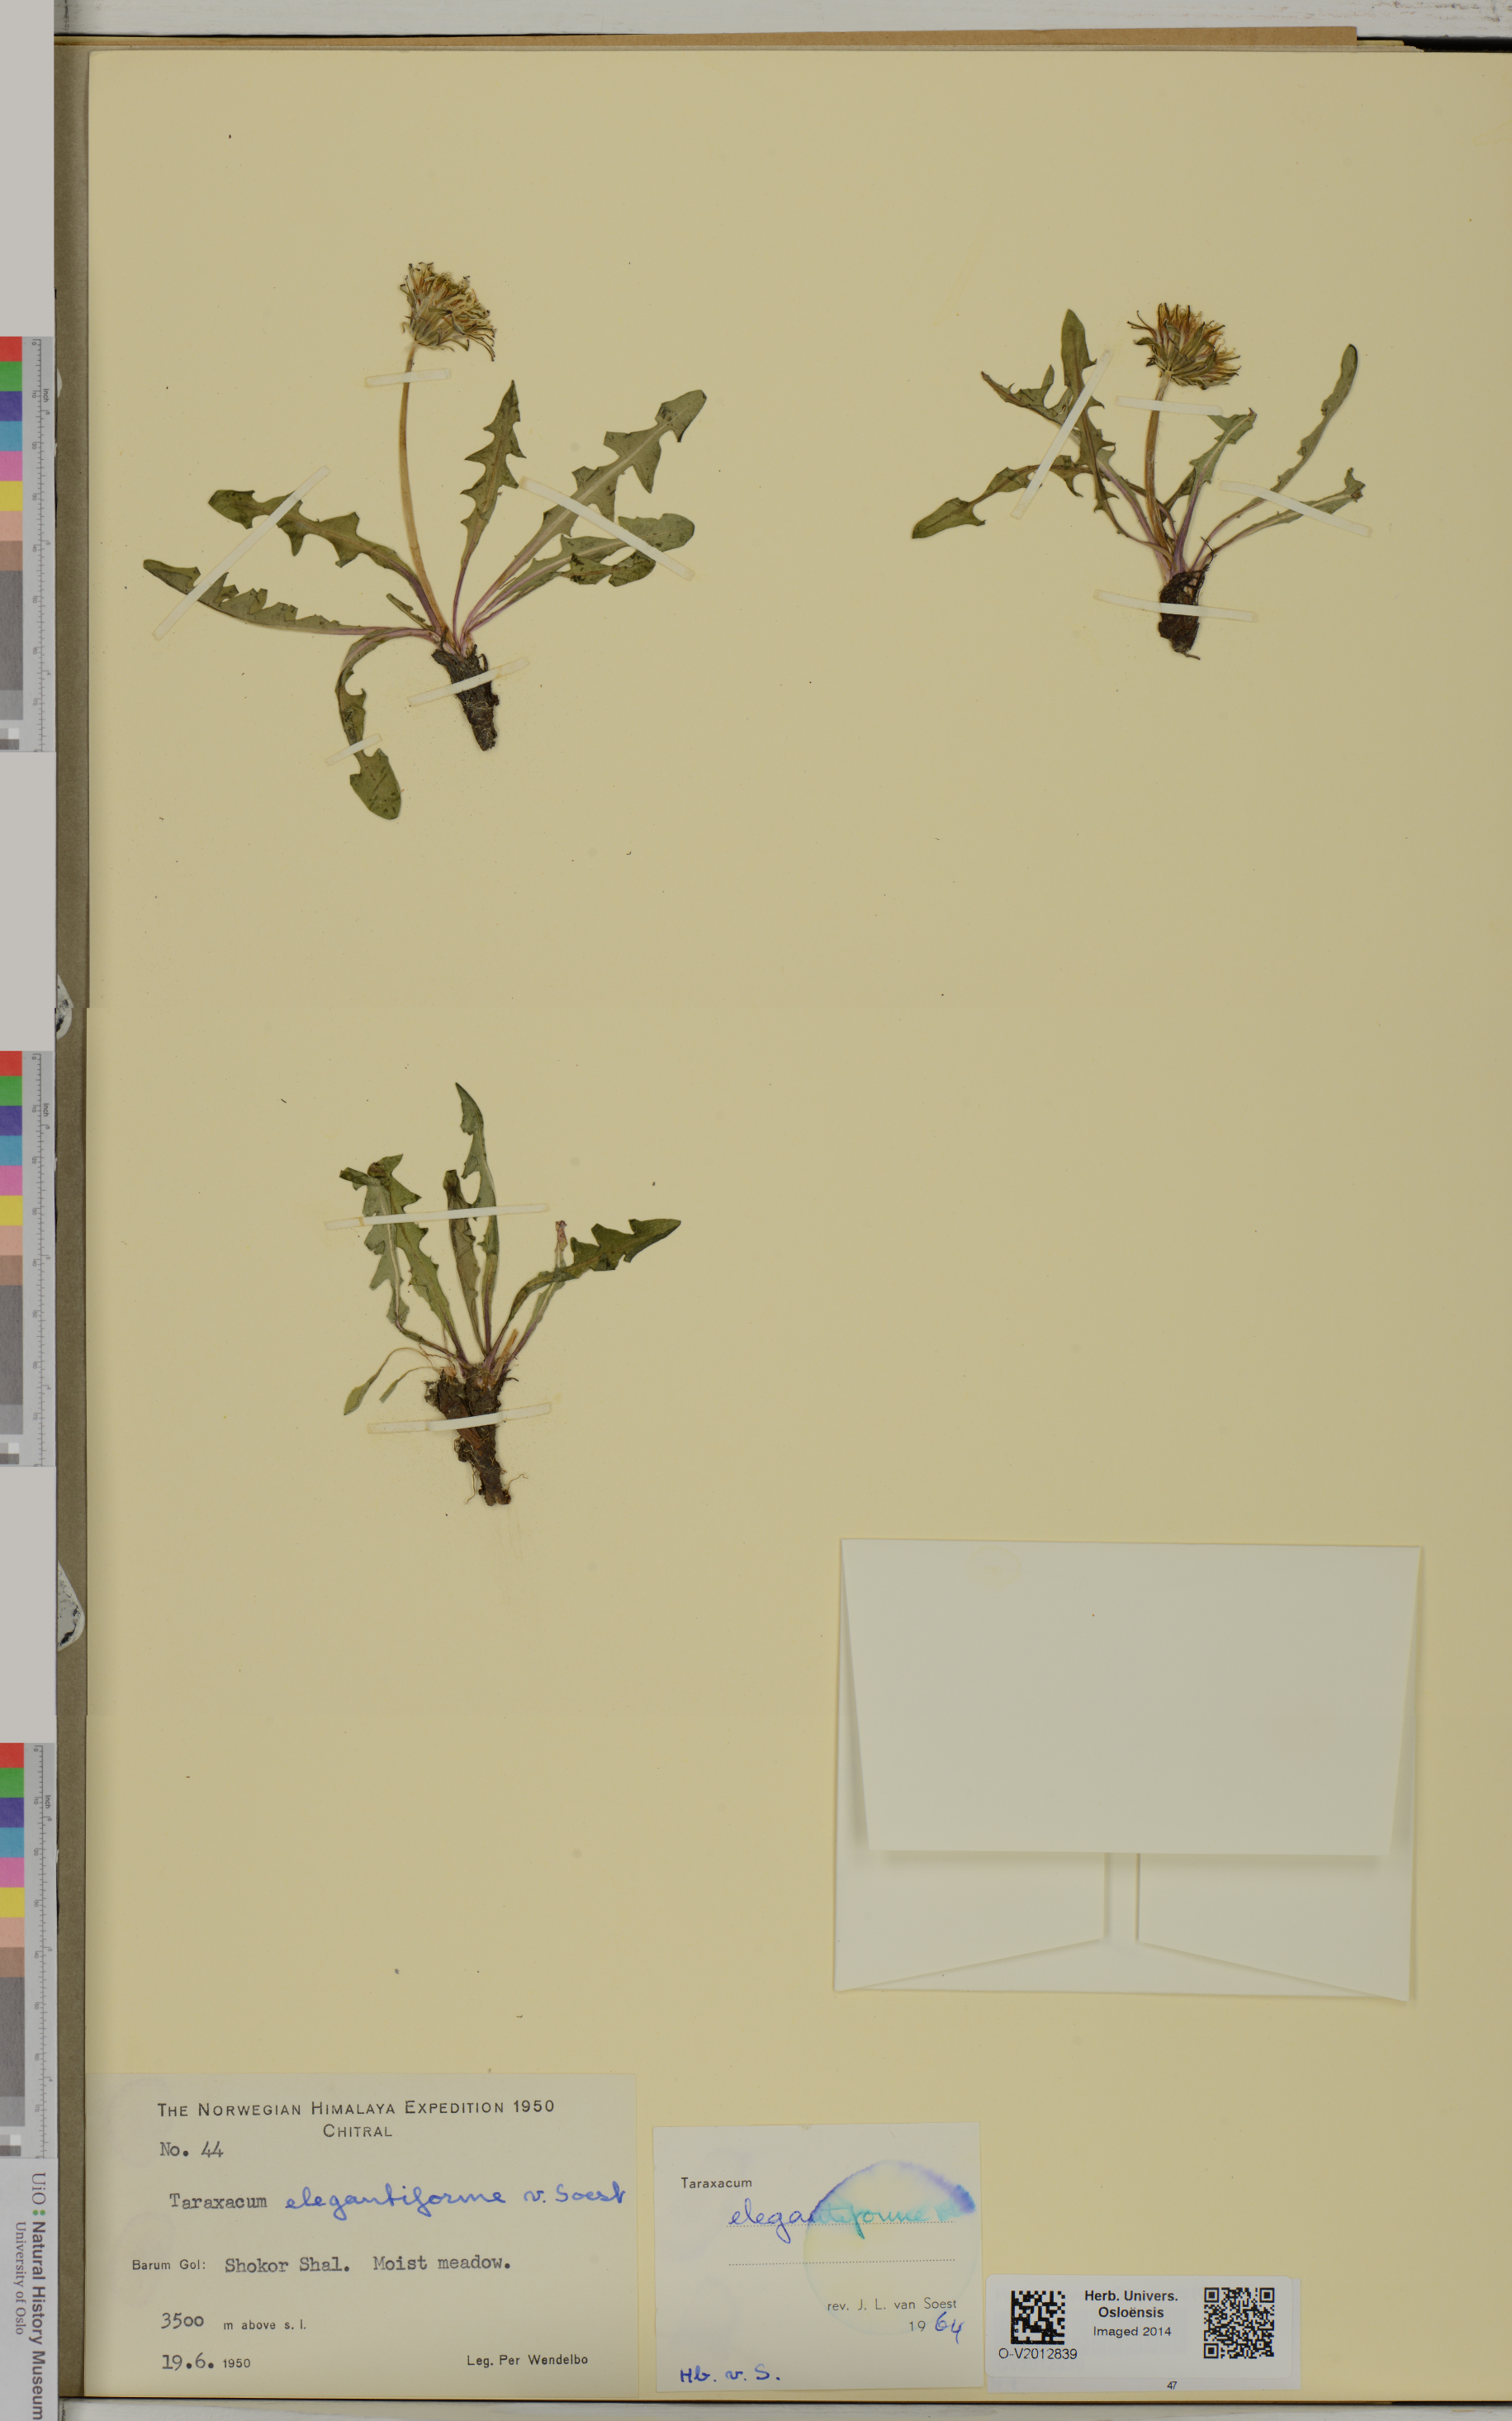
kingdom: Plantae
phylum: Tracheophyta
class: Magnoliopsida
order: Asterales
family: Asteraceae
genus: Taraxacum
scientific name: Taraxacum elegantiforme
